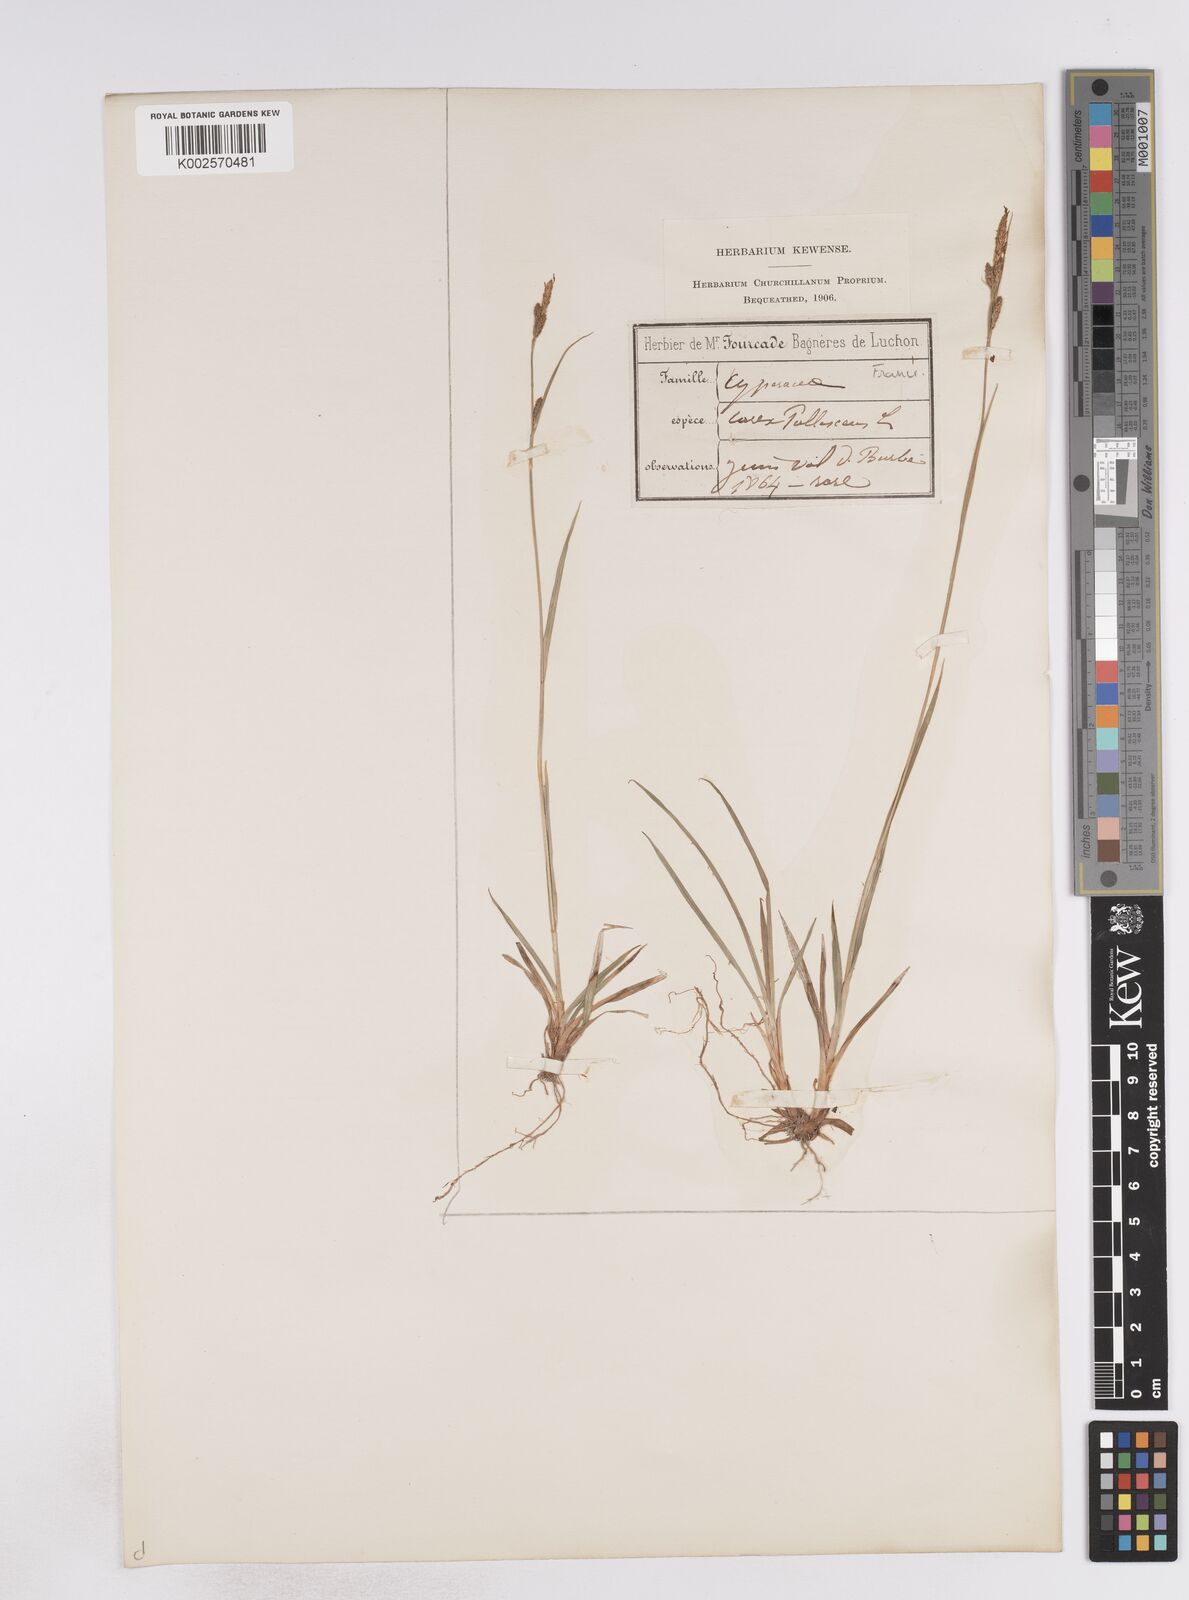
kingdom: Plantae
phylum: Tracheophyta
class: Liliopsida
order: Poales
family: Cyperaceae
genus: Carex
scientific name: Carex pallescens
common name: Pale sedge
